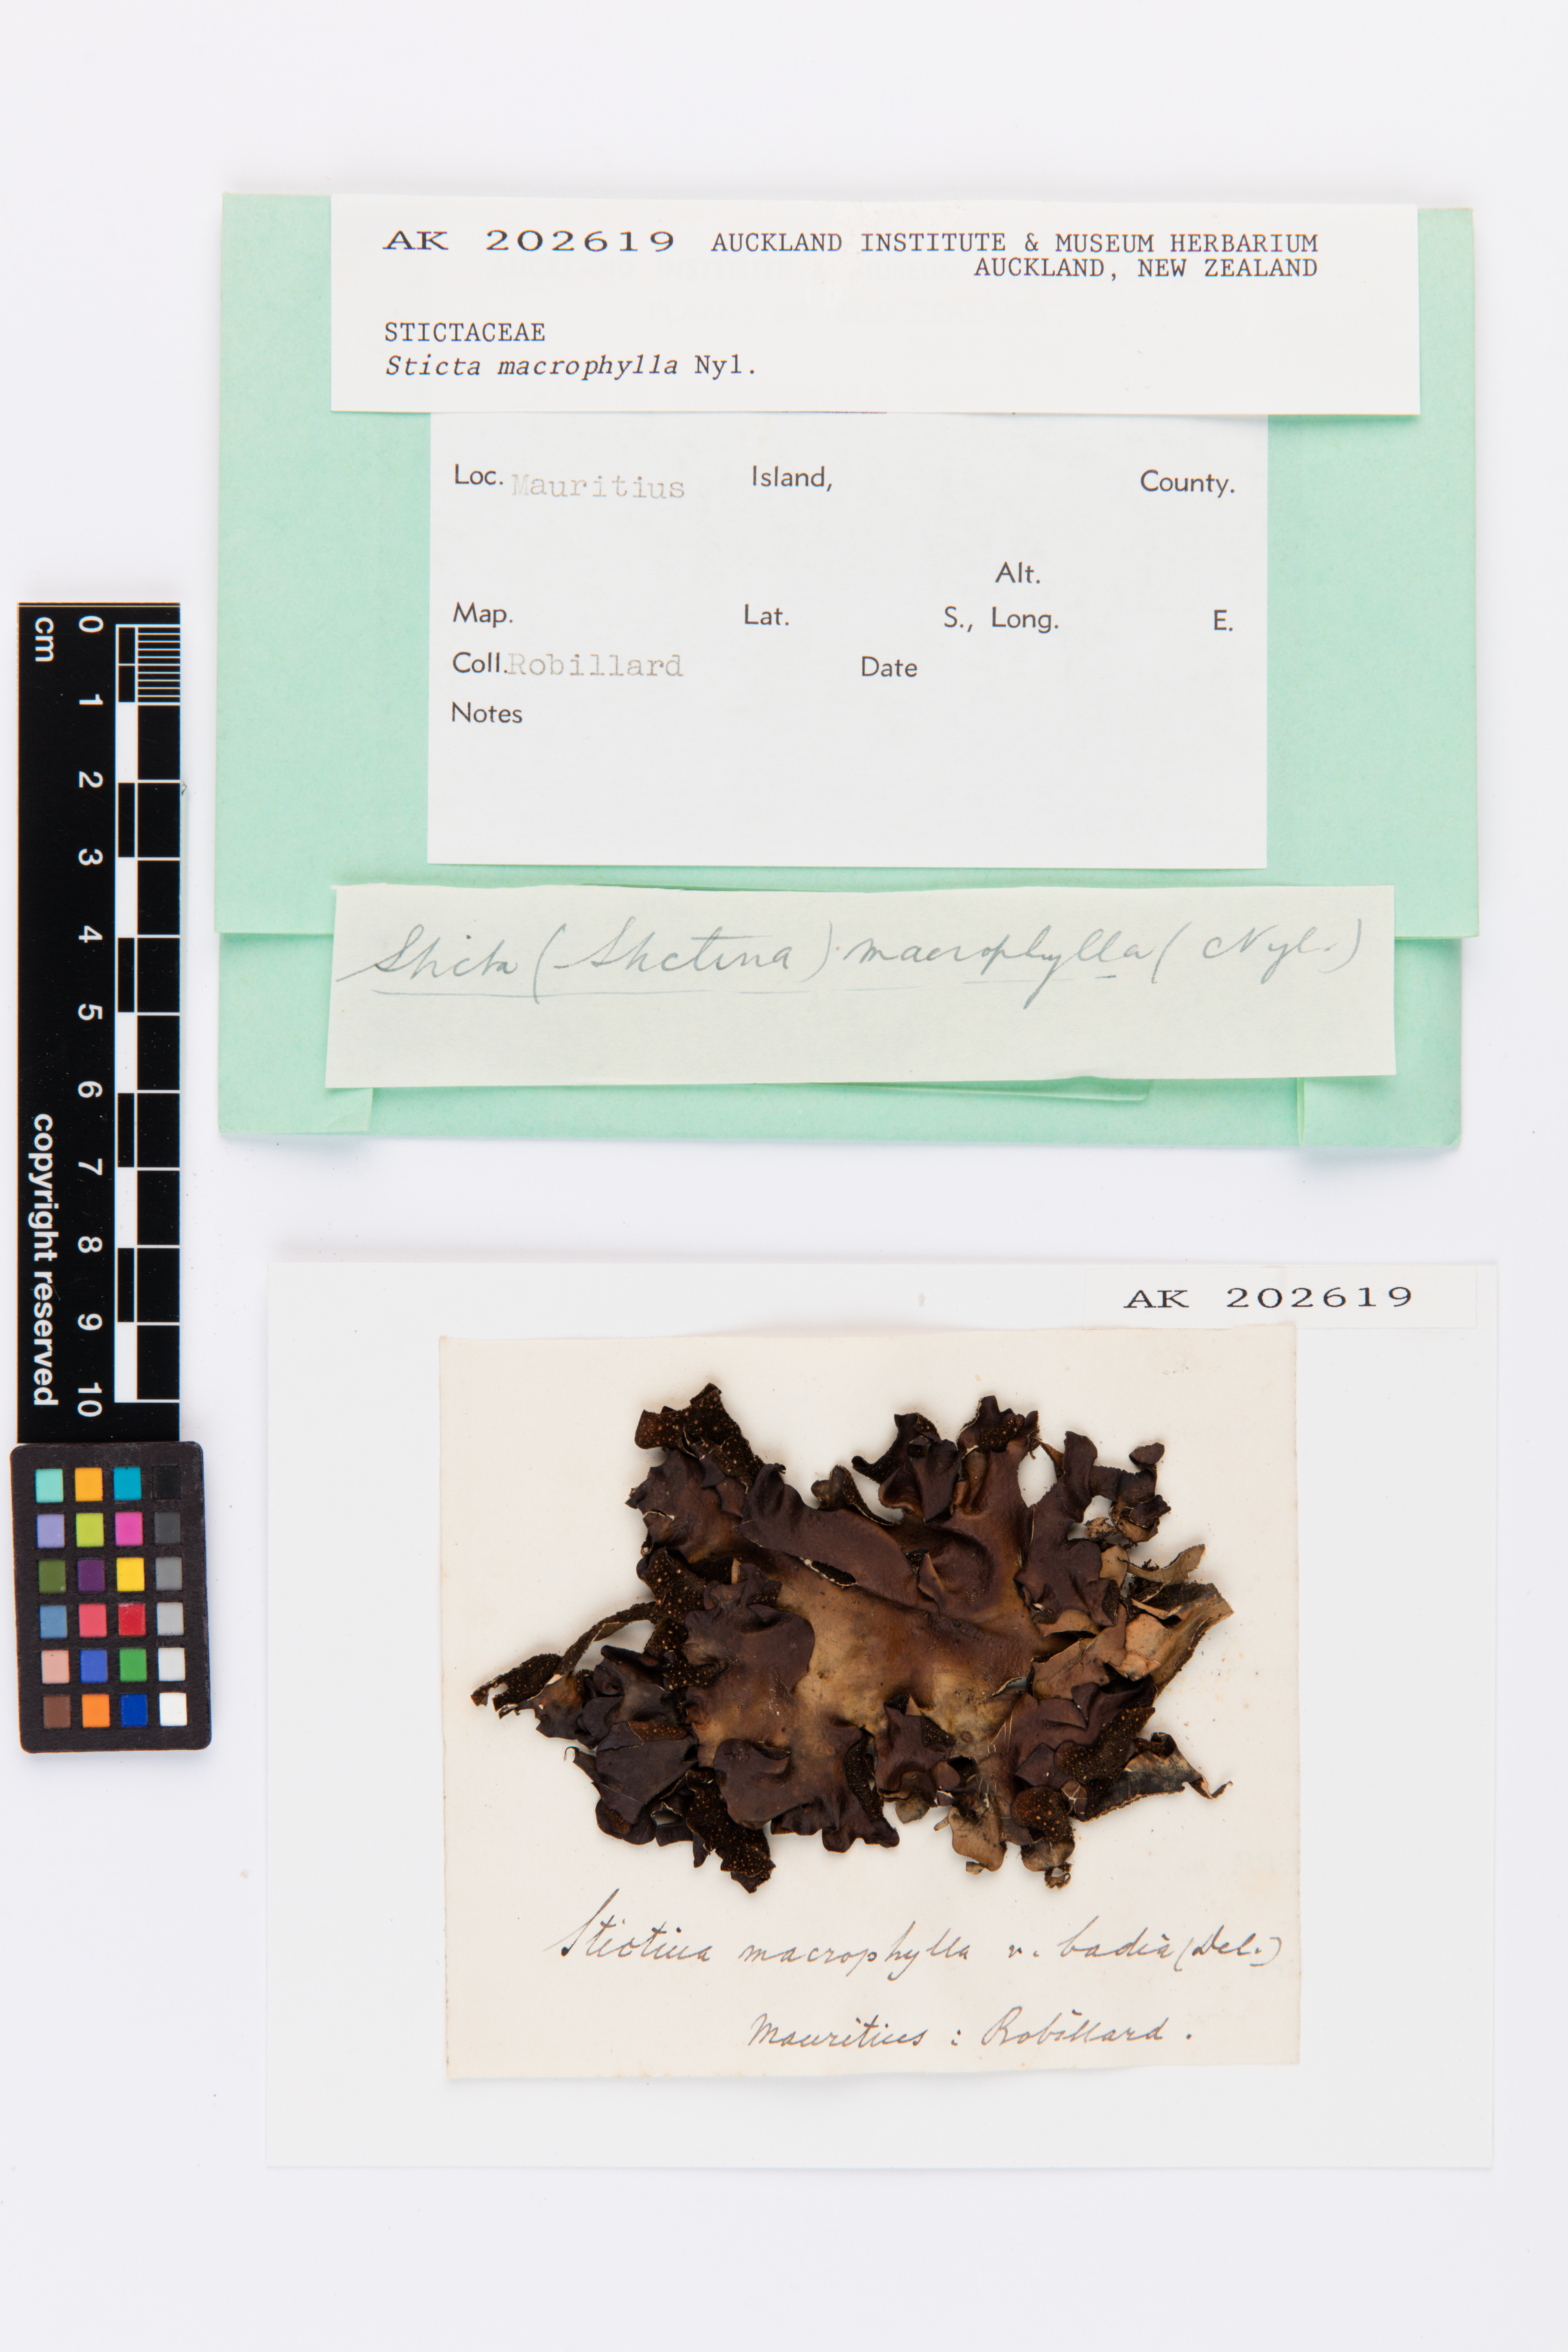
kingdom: Fungi
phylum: Ascomycota
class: Lecanoromycetes
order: Peltigerales
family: Lobariaceae
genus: Sticta
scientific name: Sticta macrophylla
